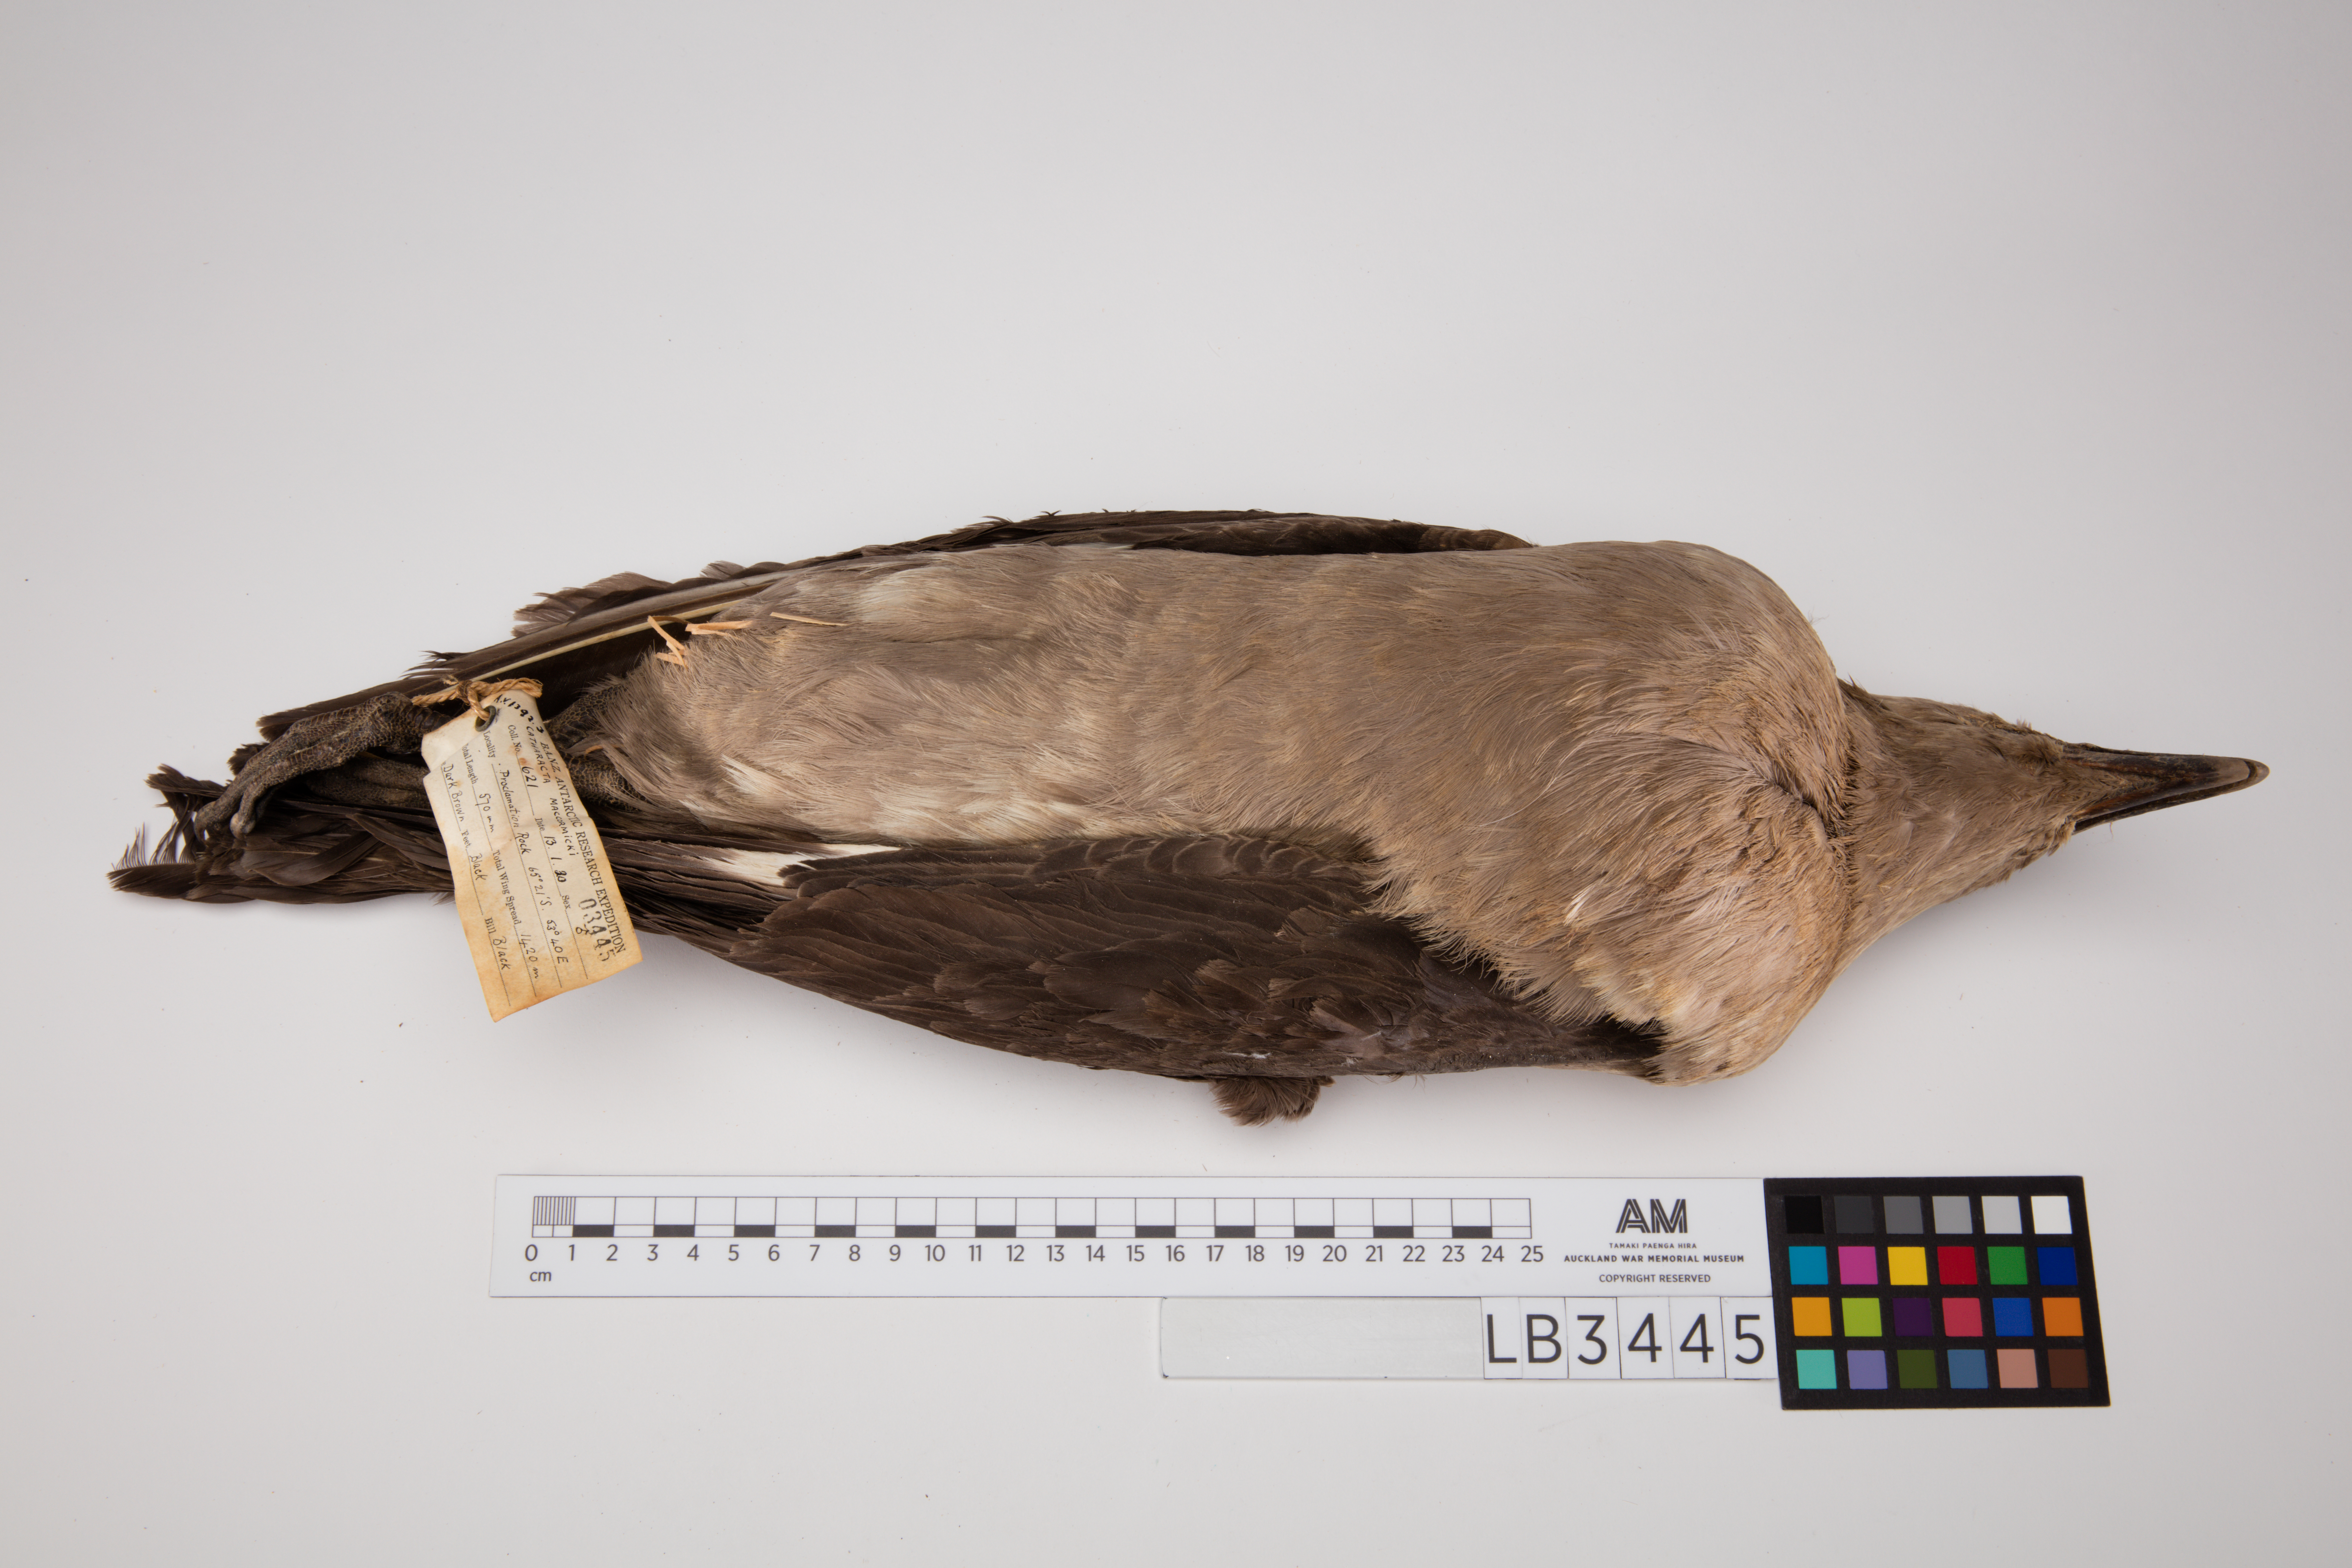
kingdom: Animalia
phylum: Chordata
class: Aves
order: Charadriiformes
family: Stercorariidae
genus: Stercorarius
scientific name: Stercorarius maccormicki
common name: South polar skua
